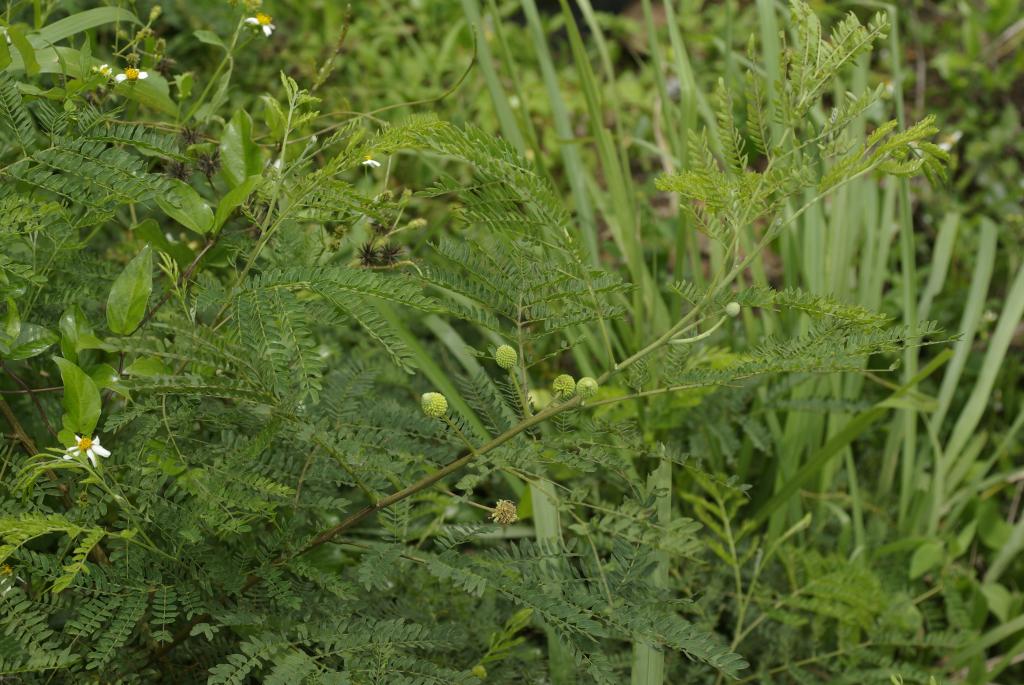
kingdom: Plantae
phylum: Tracheophyta
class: Magnoliopsida
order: Fabales
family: Fabaceae
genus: Leucaena
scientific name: Leucaena leucocephala
